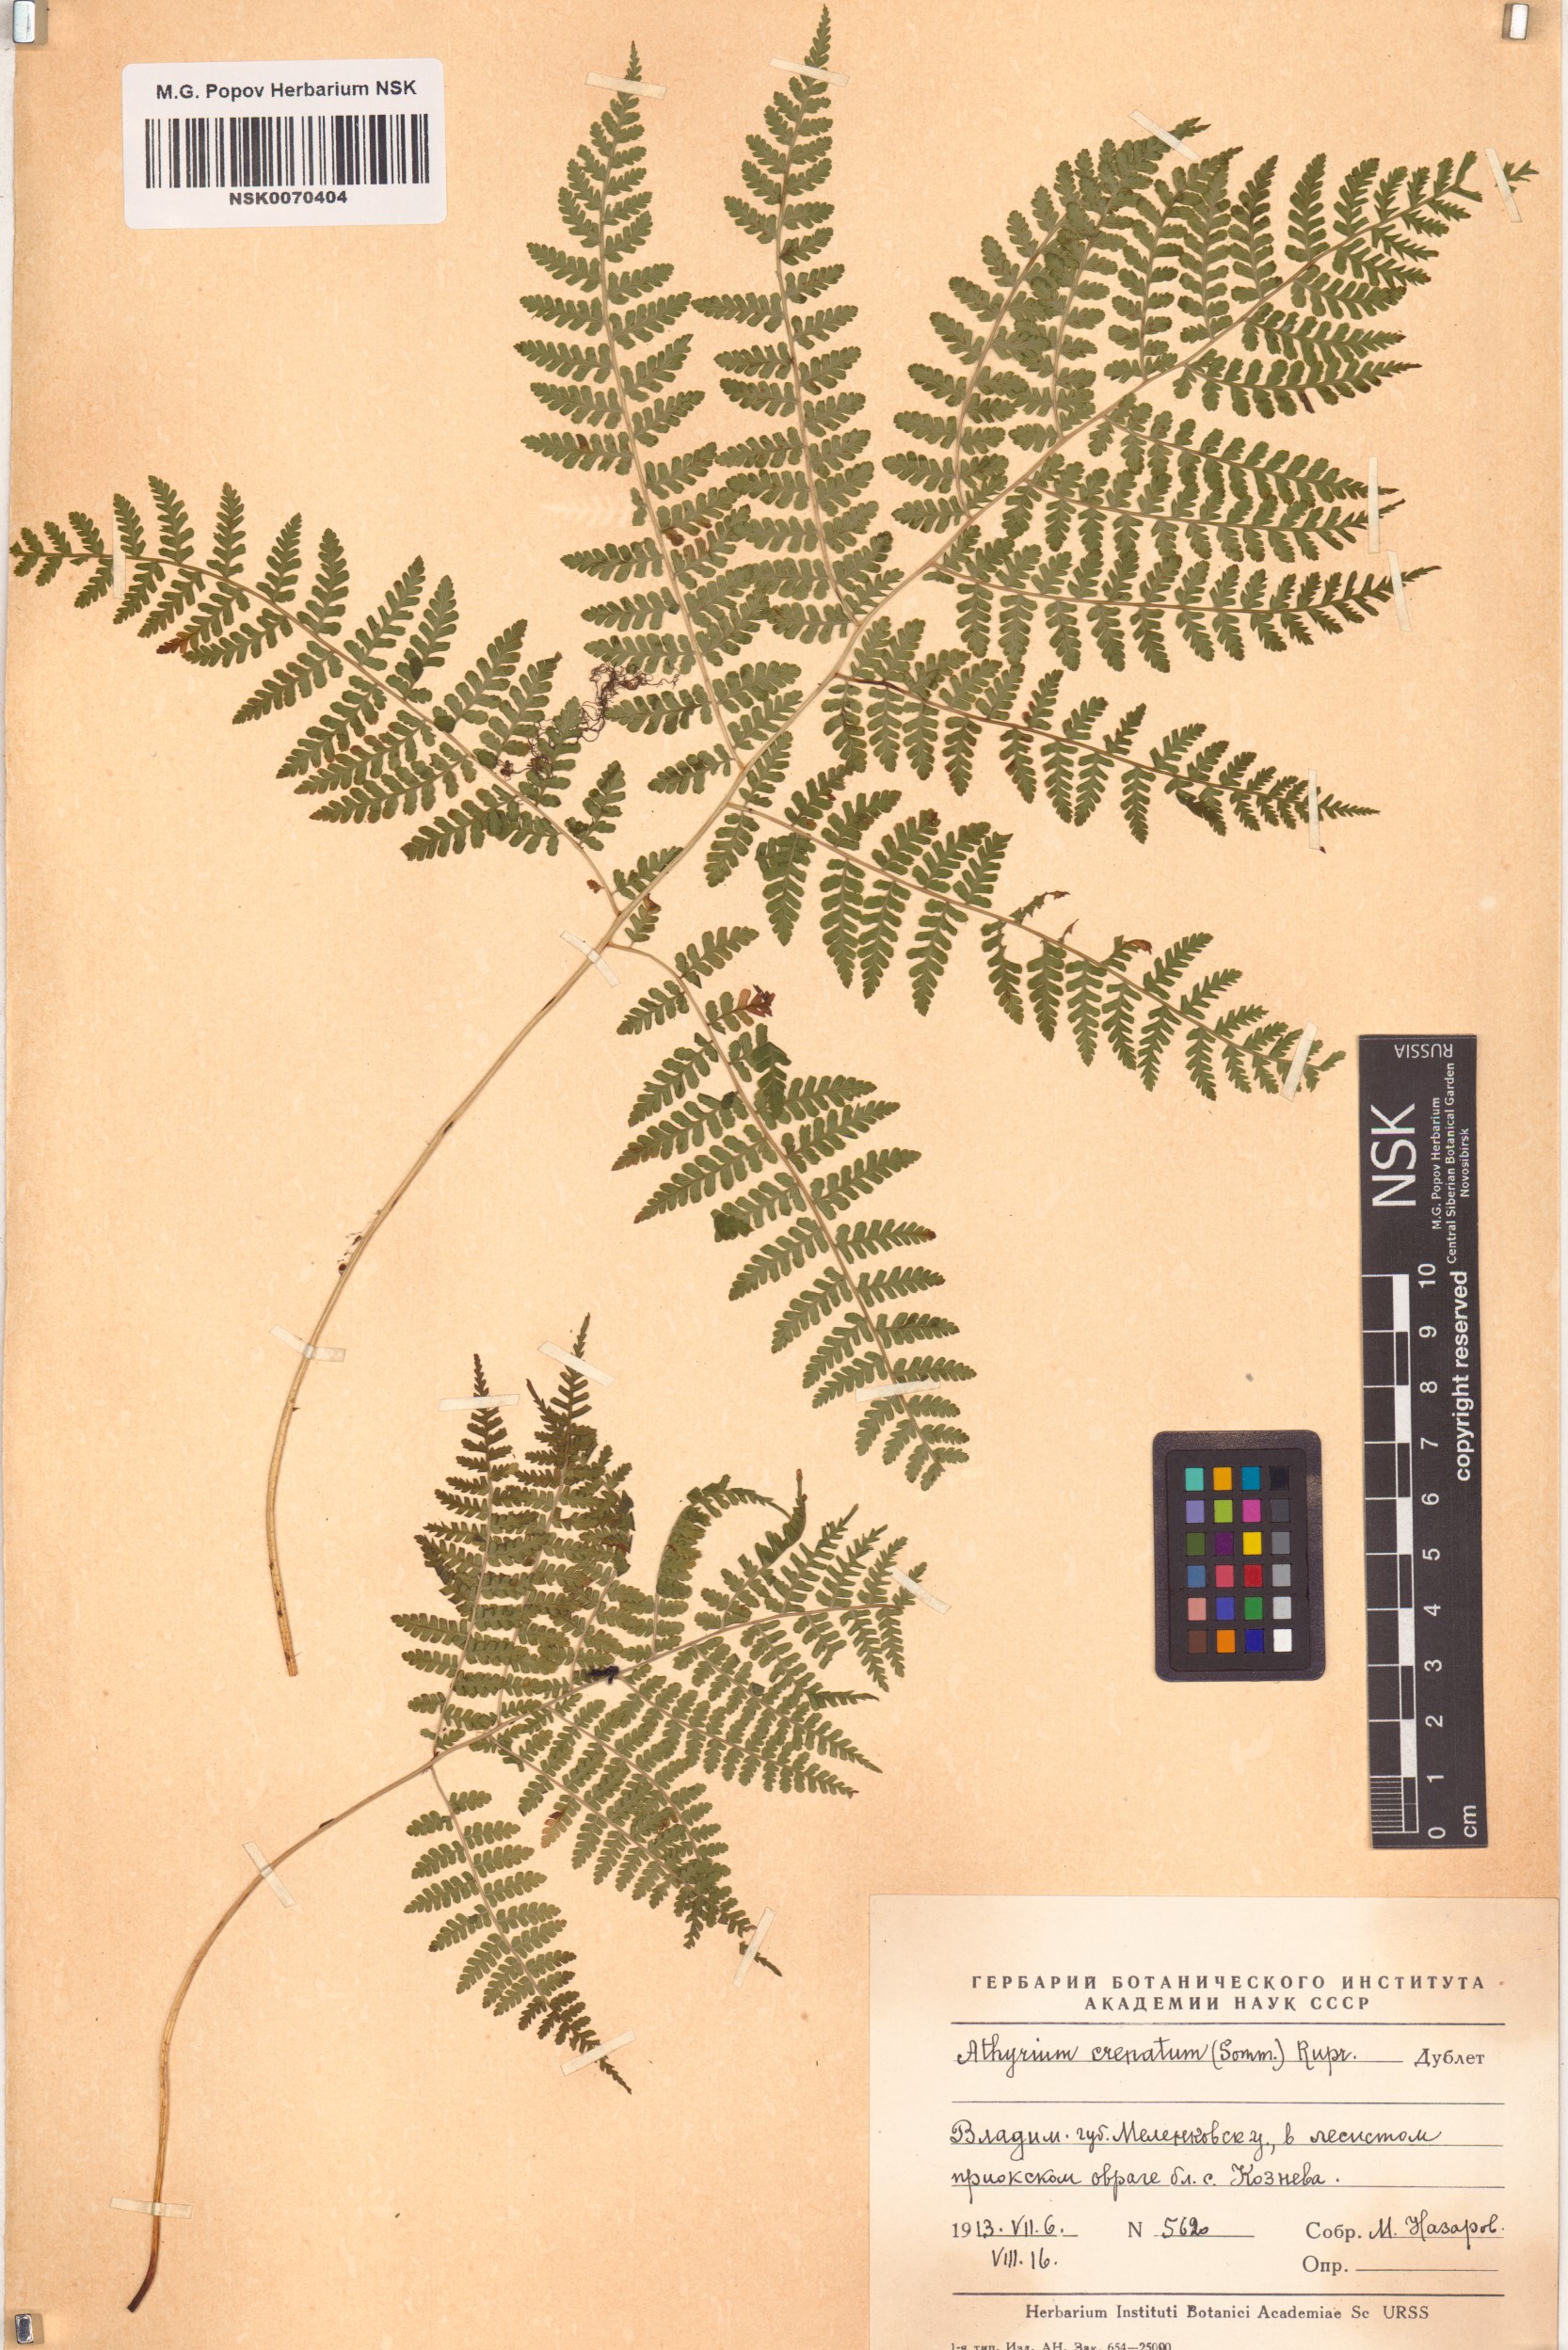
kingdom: Plantae
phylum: Tracheophyta
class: Polypodiopsida
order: Polypodiales
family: Athyriaceae
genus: Diplazium
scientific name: Diplazium sibiricum
